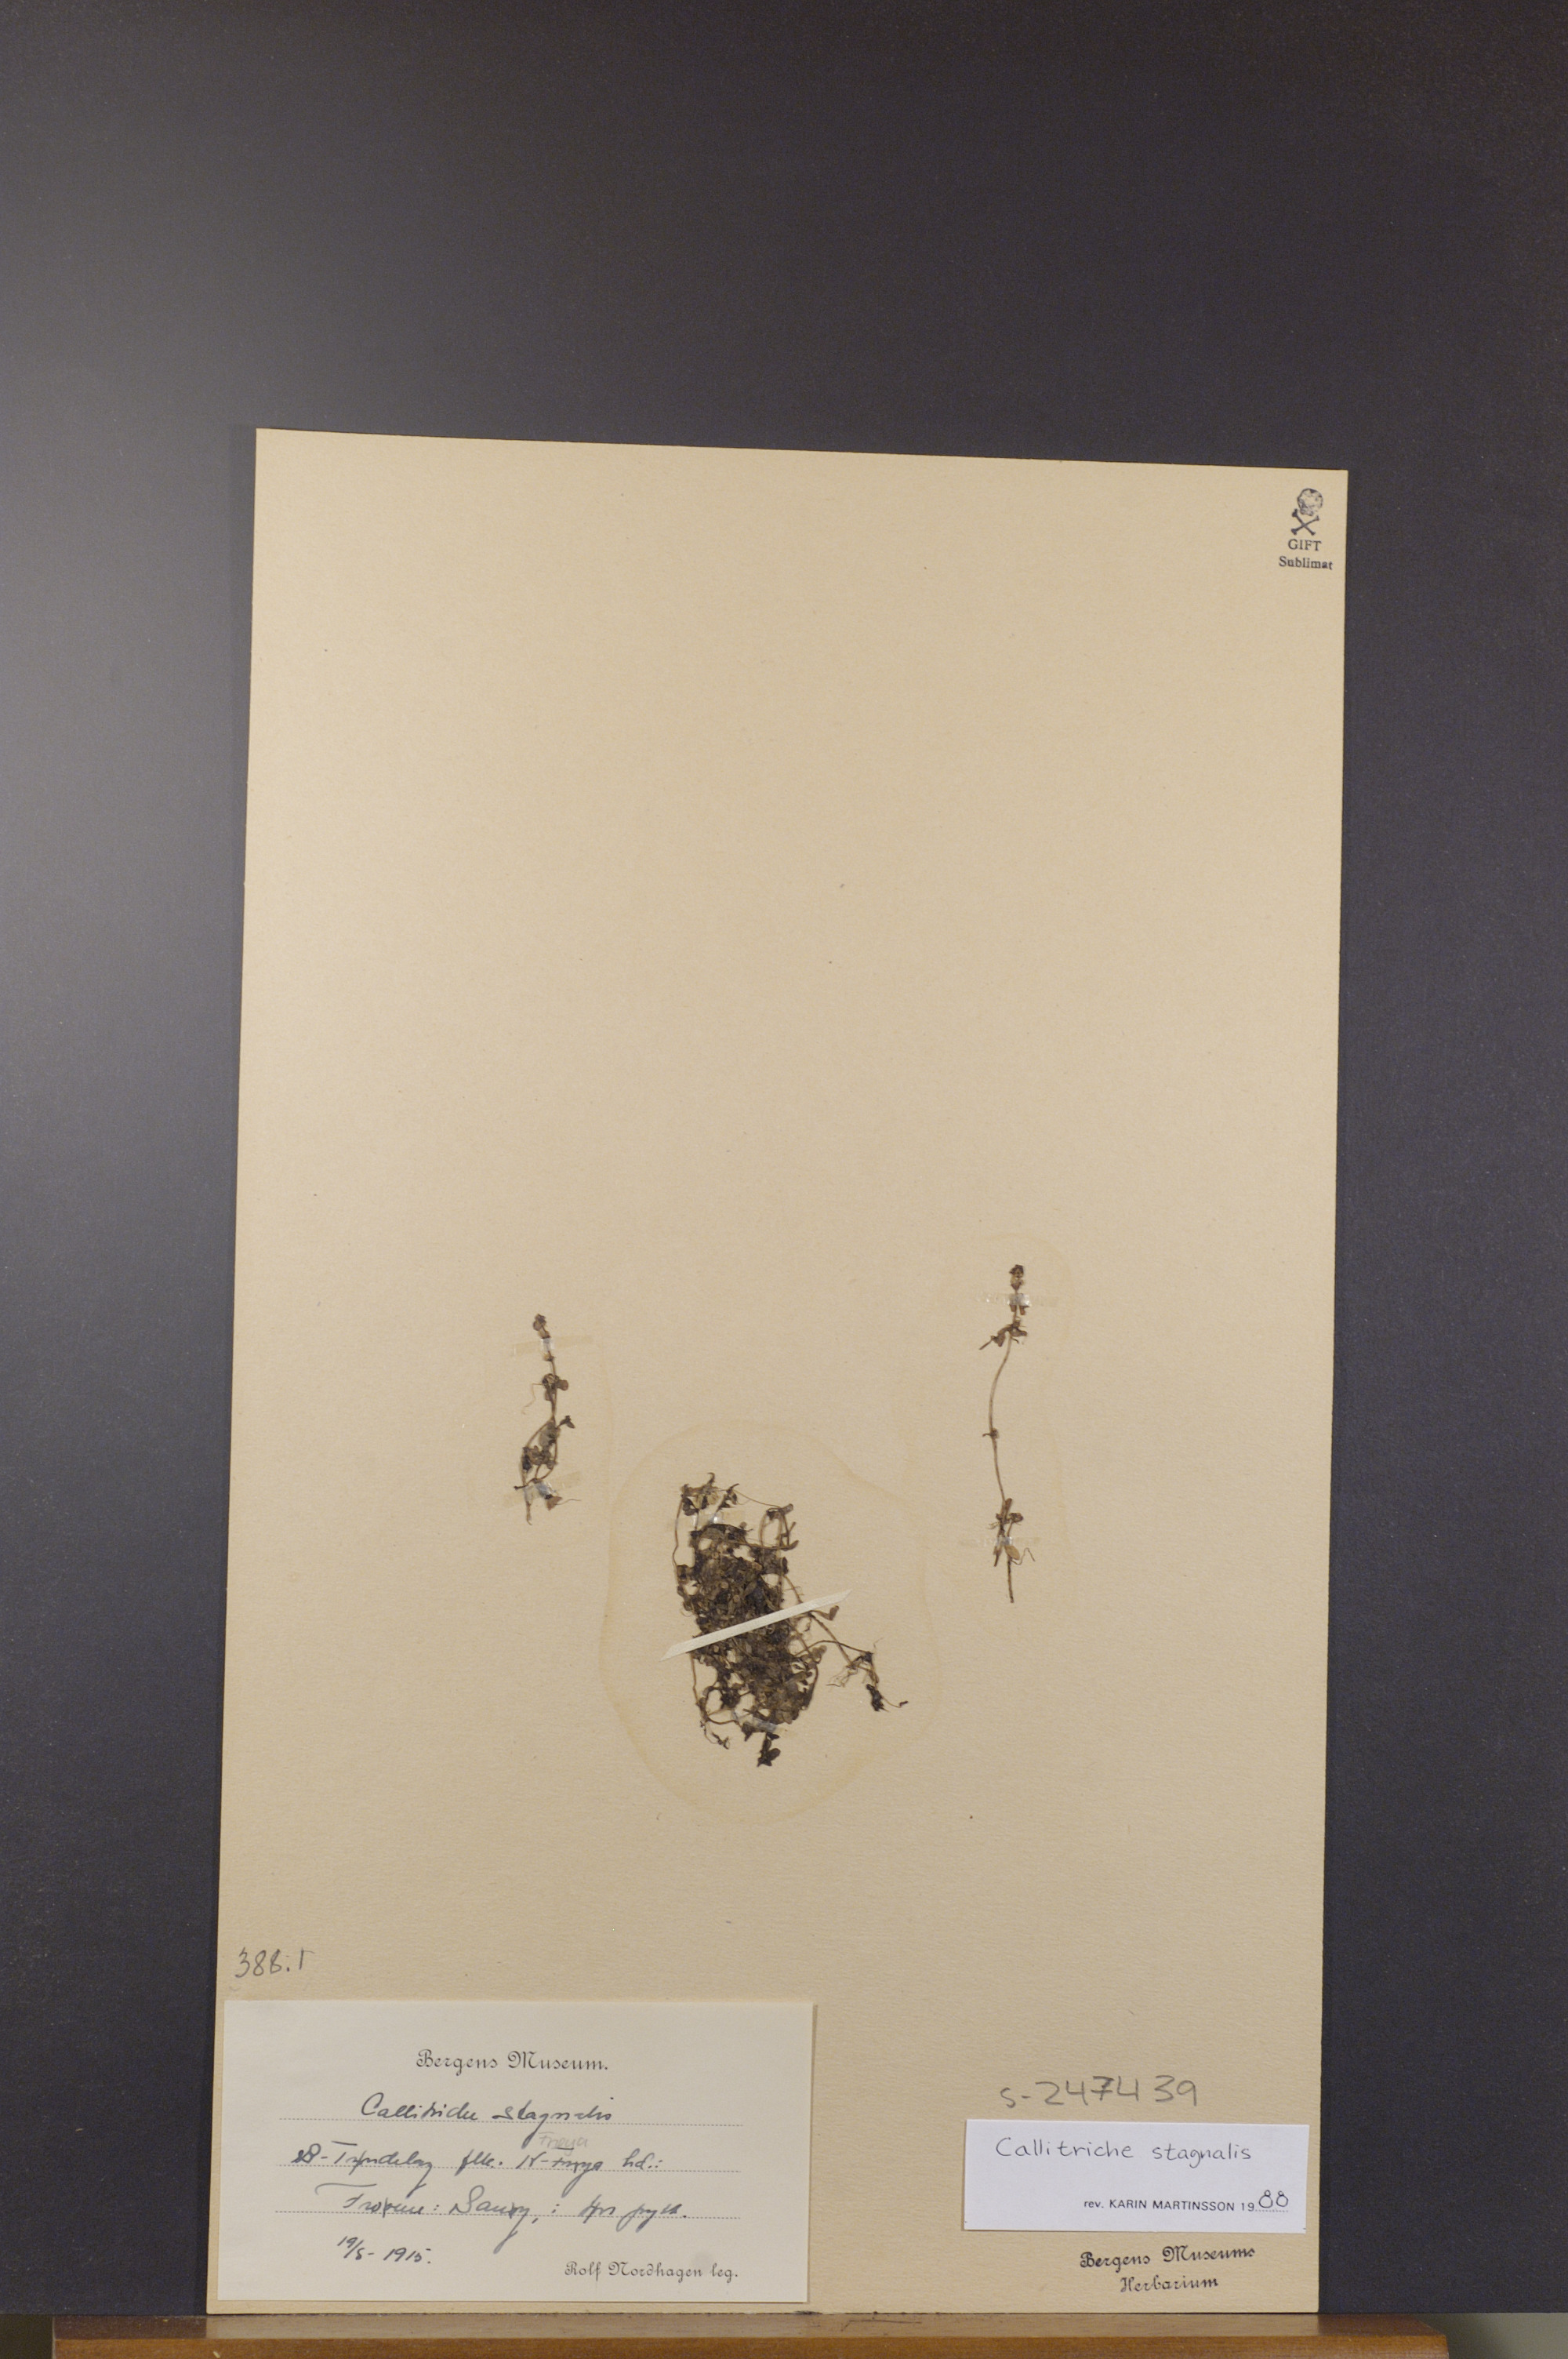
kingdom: Plantae
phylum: Tracheophyta
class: Magnoliopsida
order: Lamiales
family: Plantaginaceae
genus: Callitriche
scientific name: Callitriche stagnalis
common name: Common water-starwort
